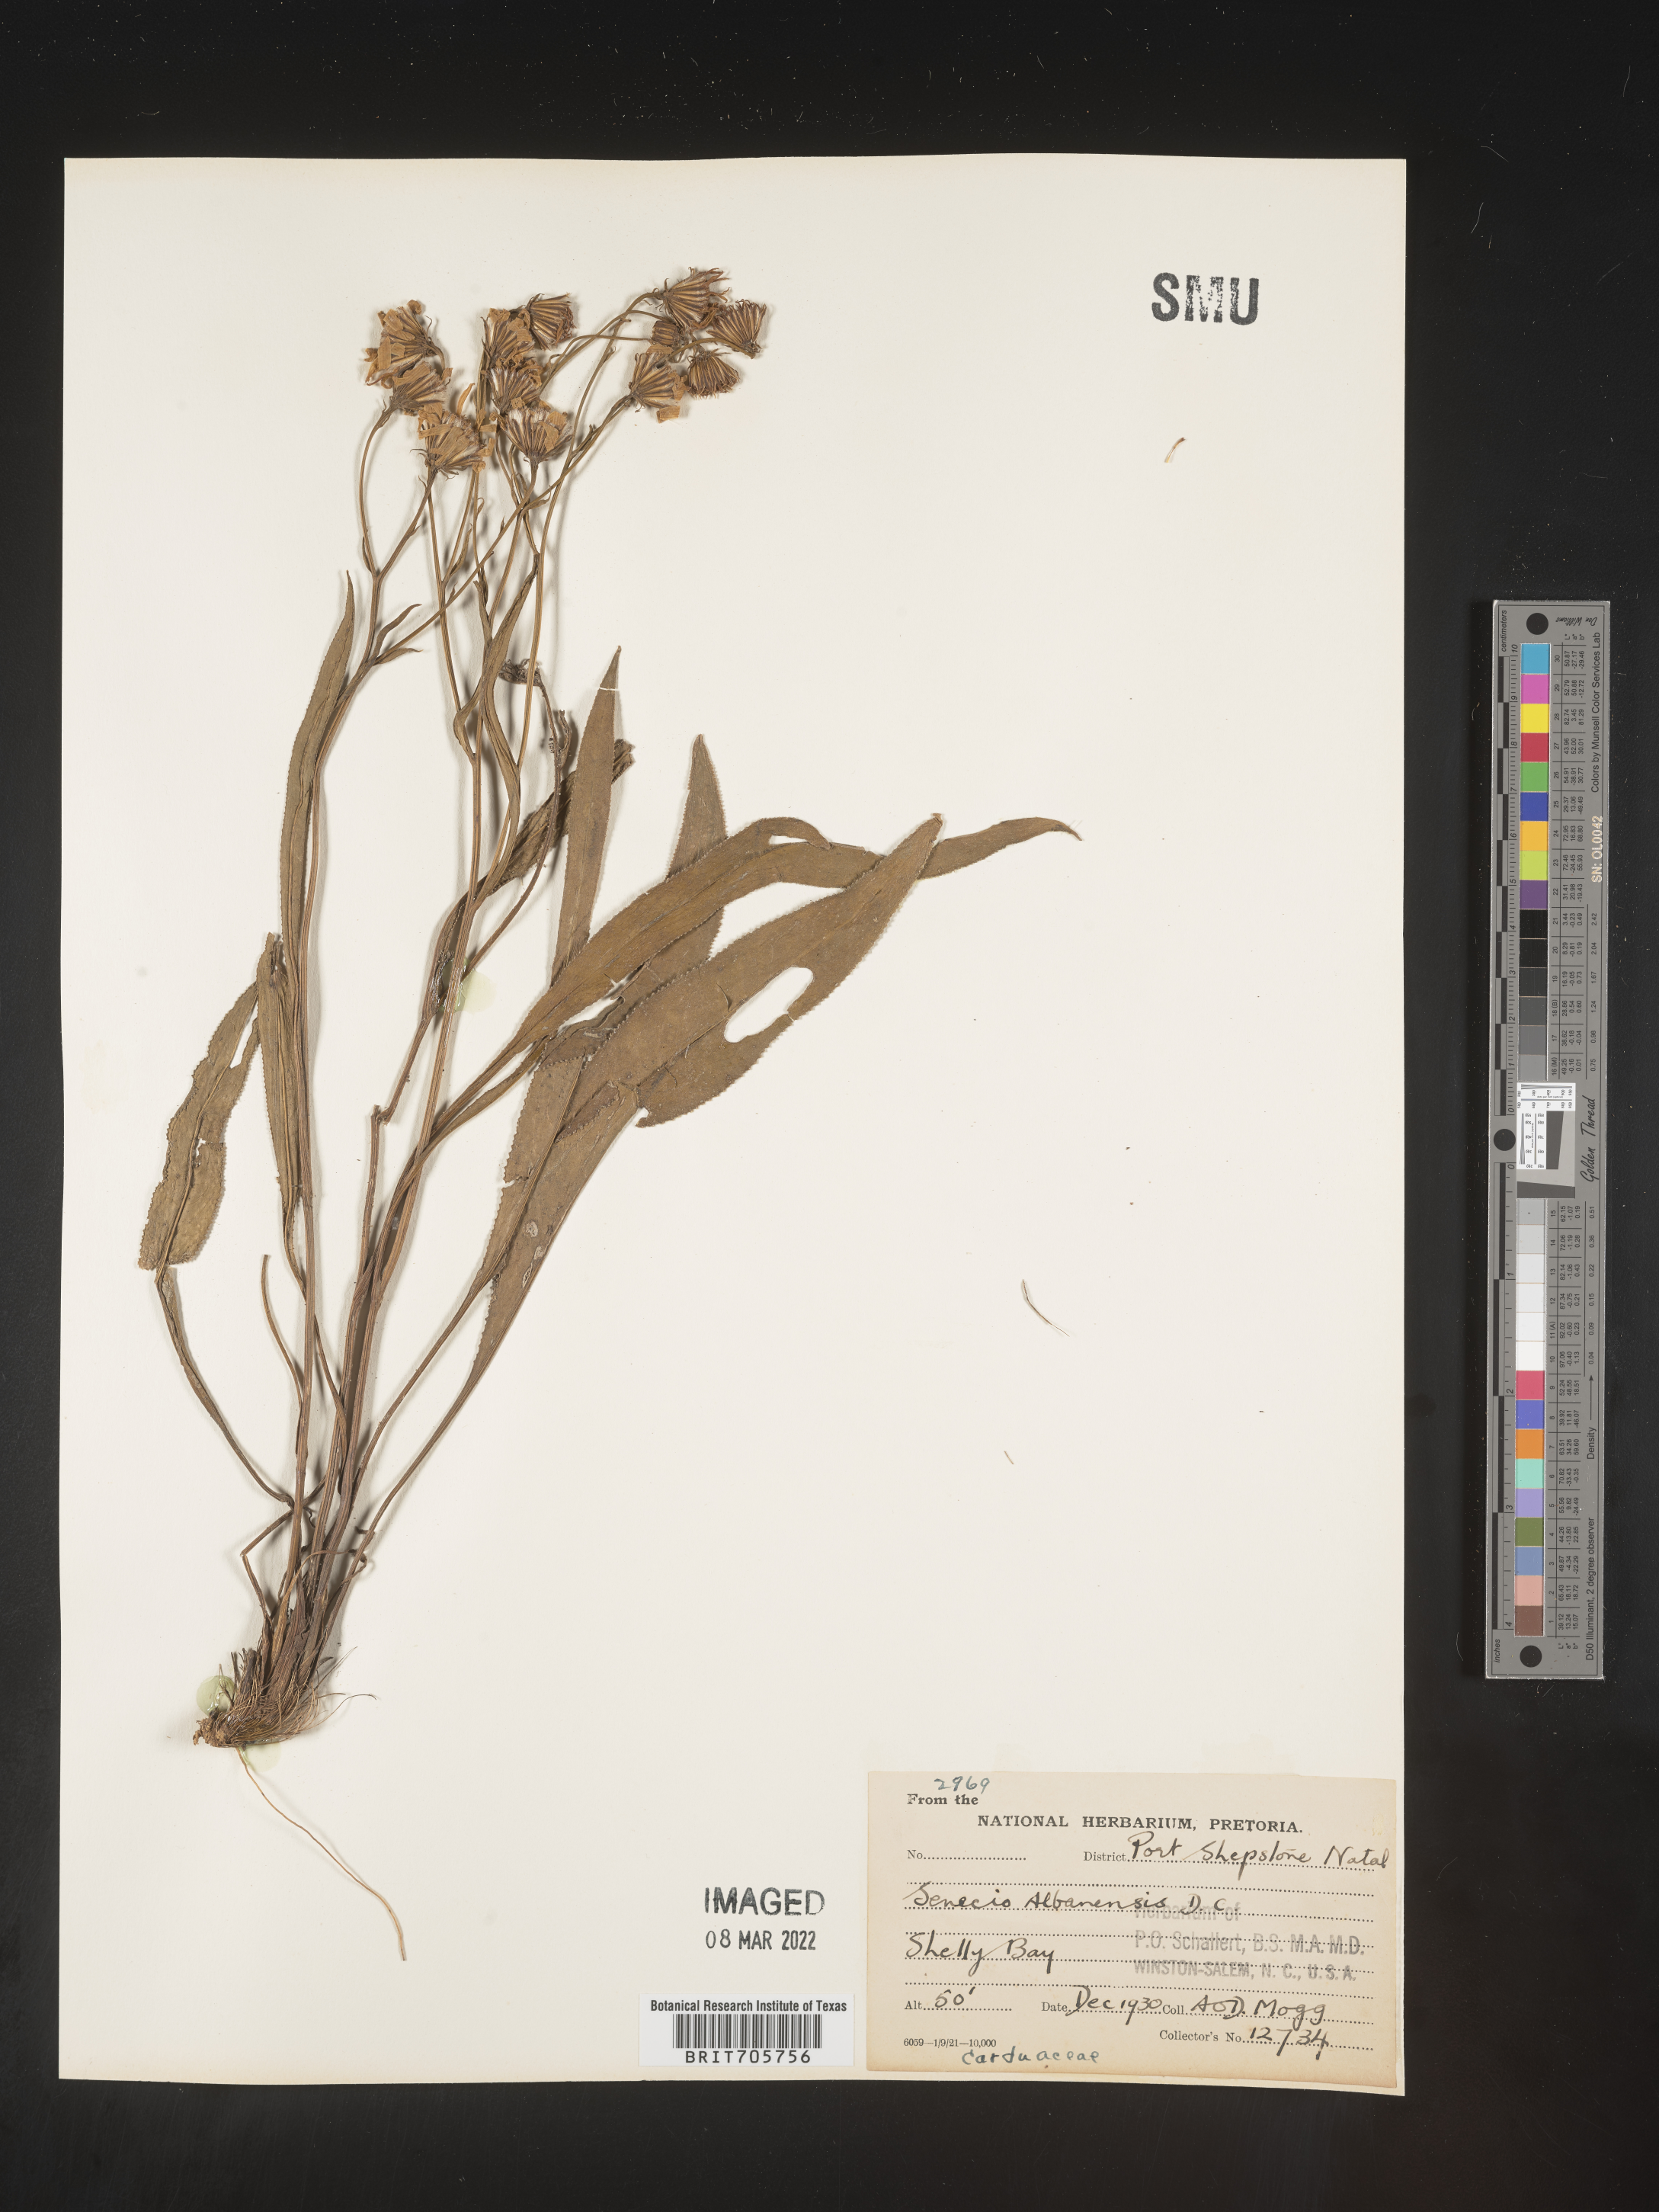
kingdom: Plantae
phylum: Tracheophyta
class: Magnoliopsida
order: Asterales
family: Asteraceae
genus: Senecio
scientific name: Senecio
